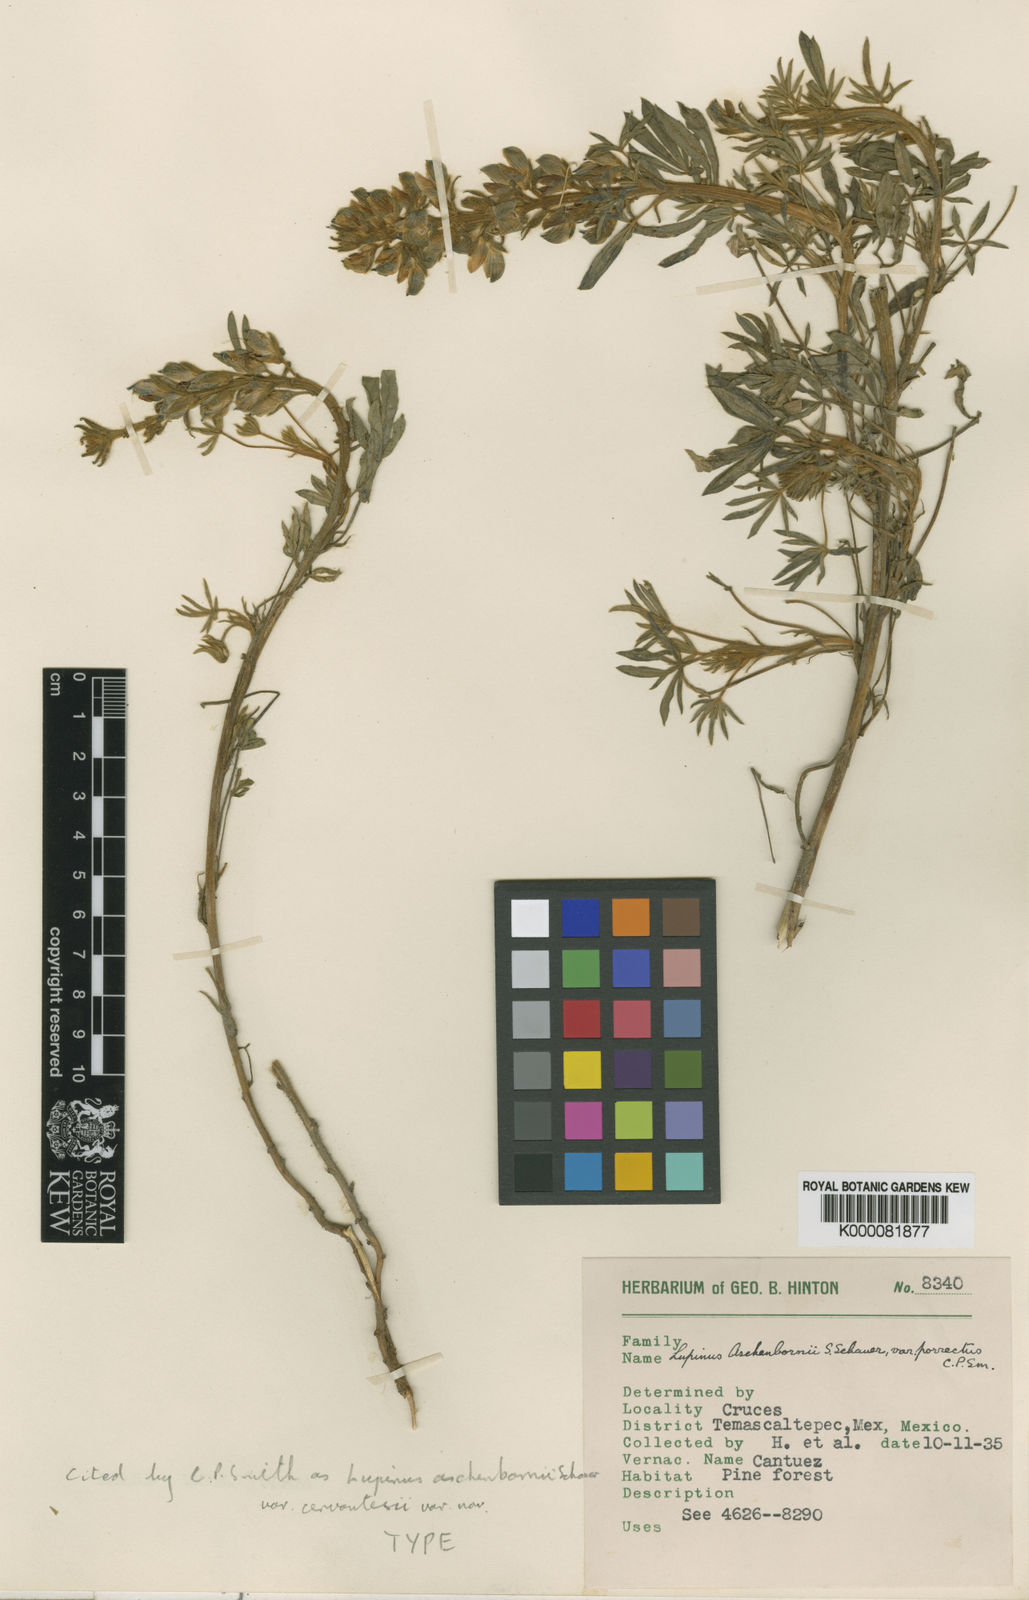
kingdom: Plantae
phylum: Tracheophyta
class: Magnoliopsida
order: Fabales
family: Fabaceae
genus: Lupinus
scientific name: Lupinus aschenbornii
